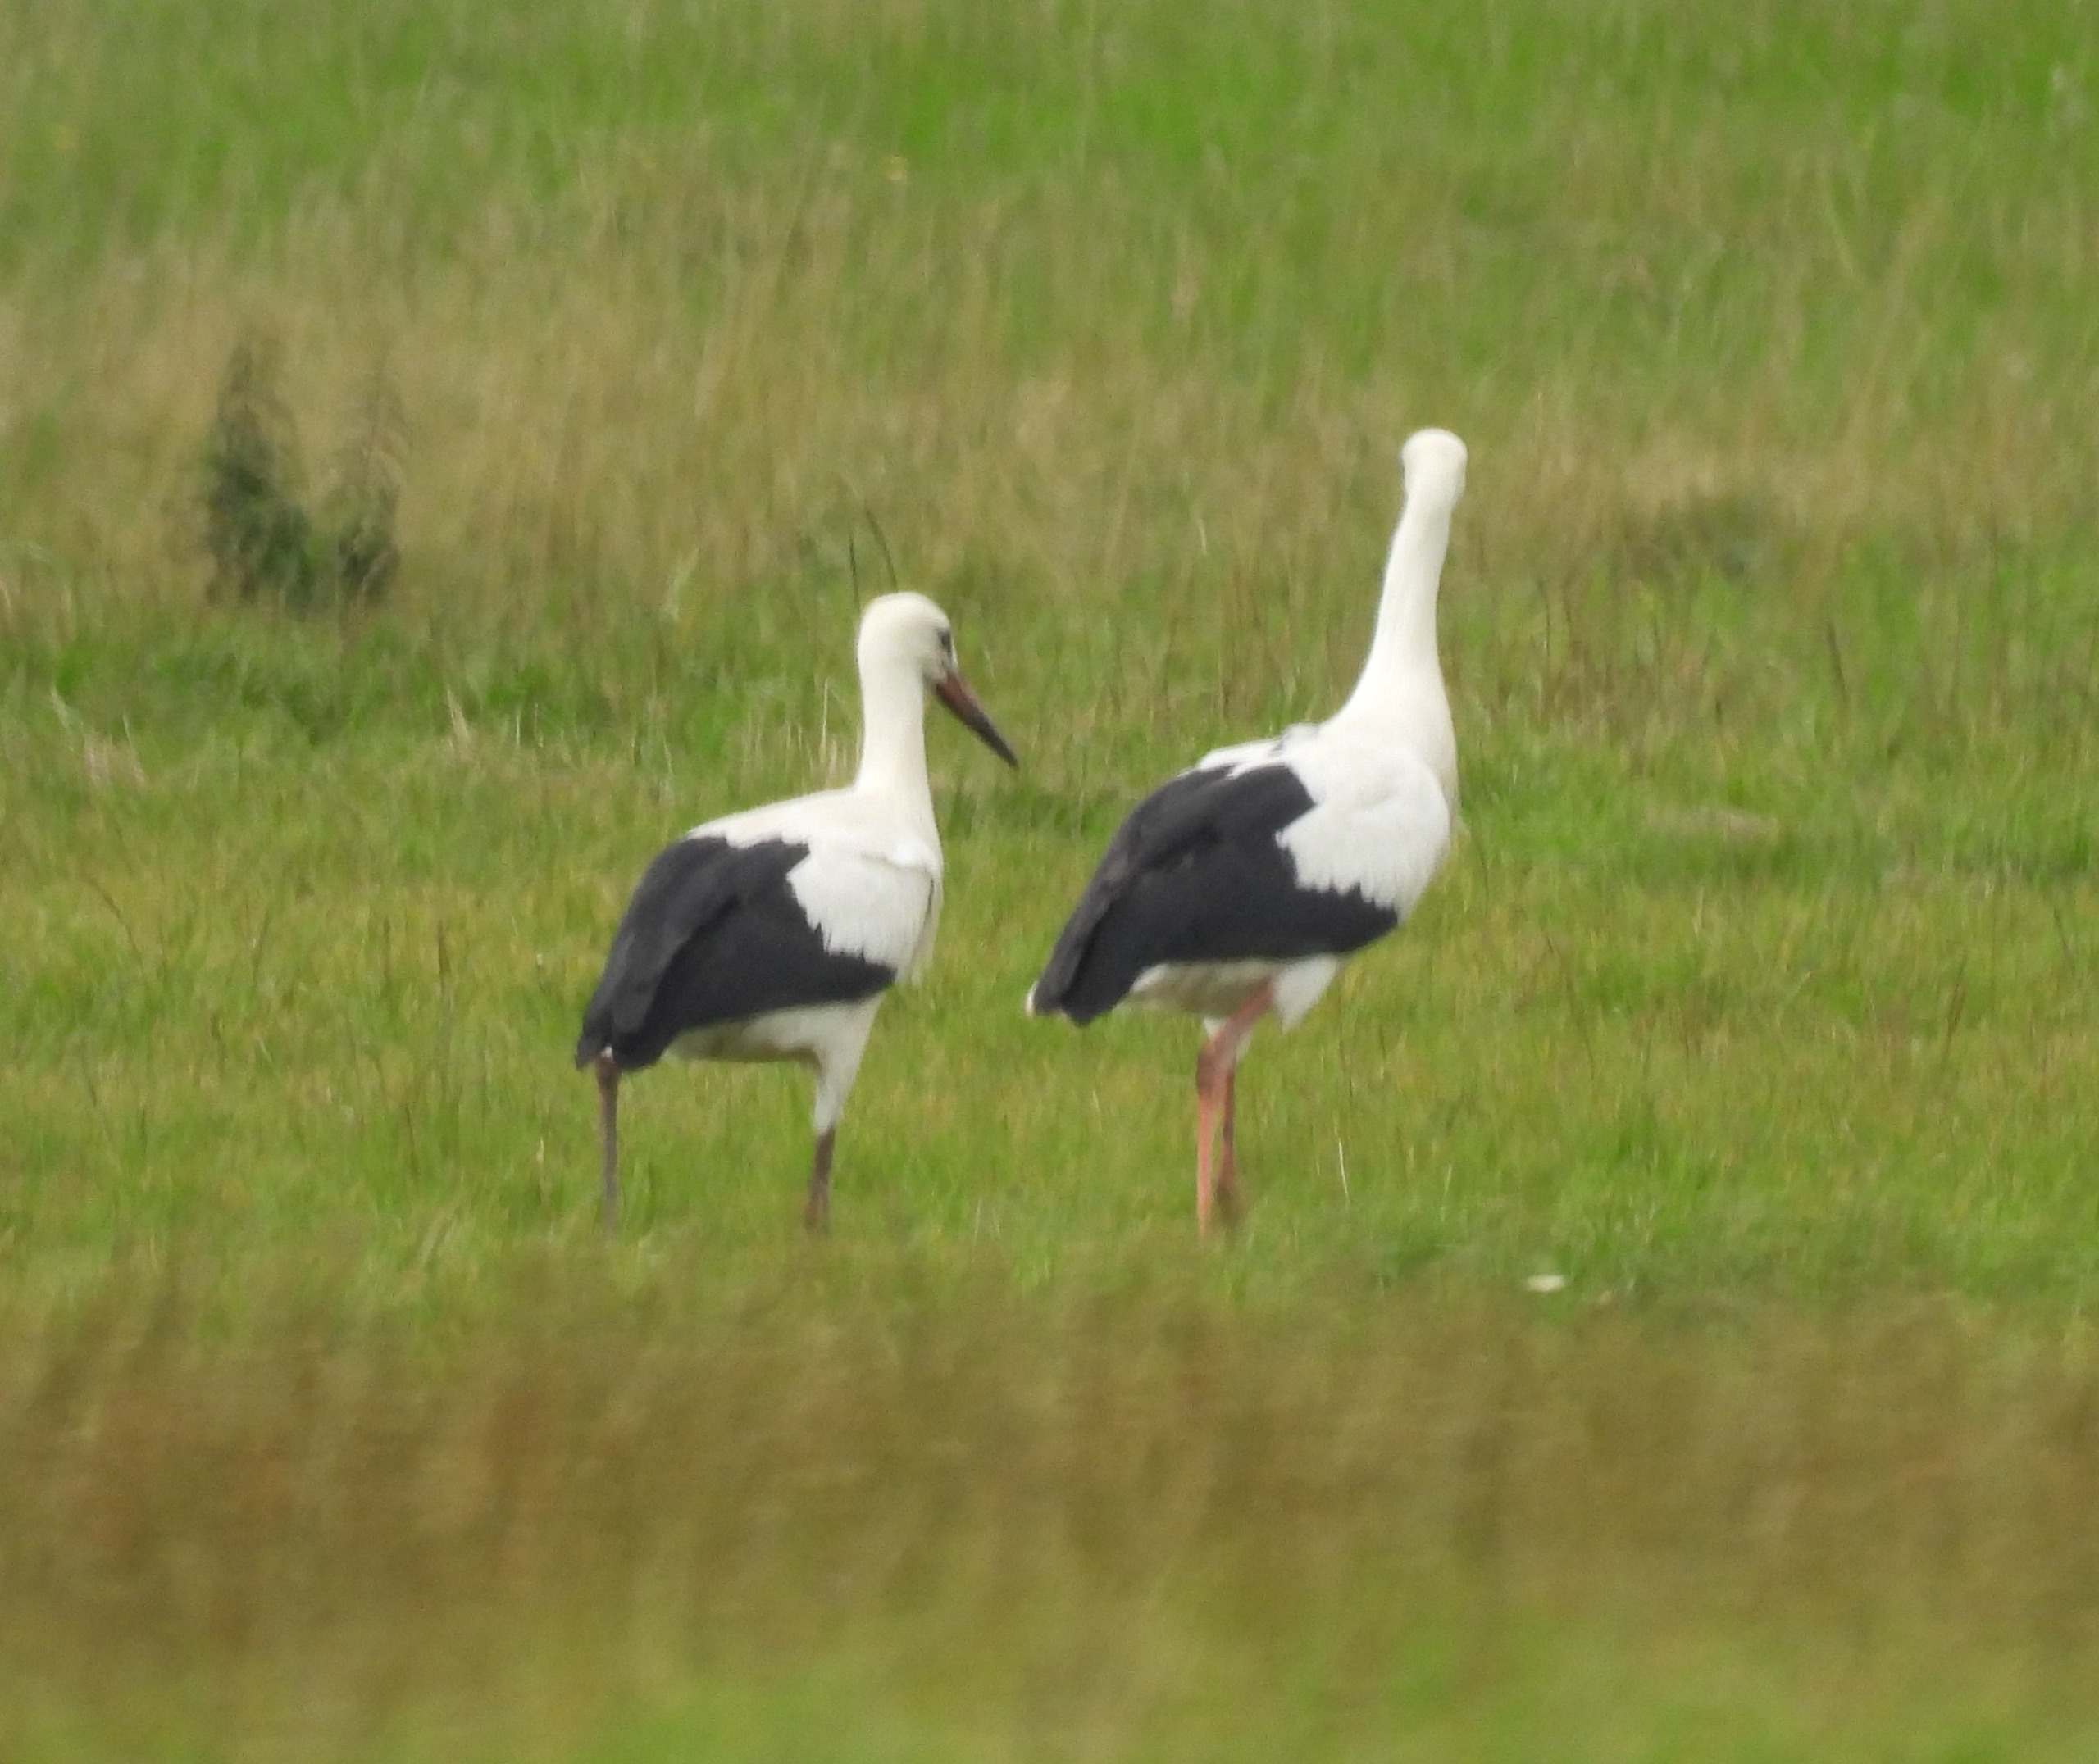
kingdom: Animalia
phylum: Chordata
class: Aves
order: Ciconiiformes
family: Ciconiidae
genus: Ciconia
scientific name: Ciconia ciconia
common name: Hvid stork
